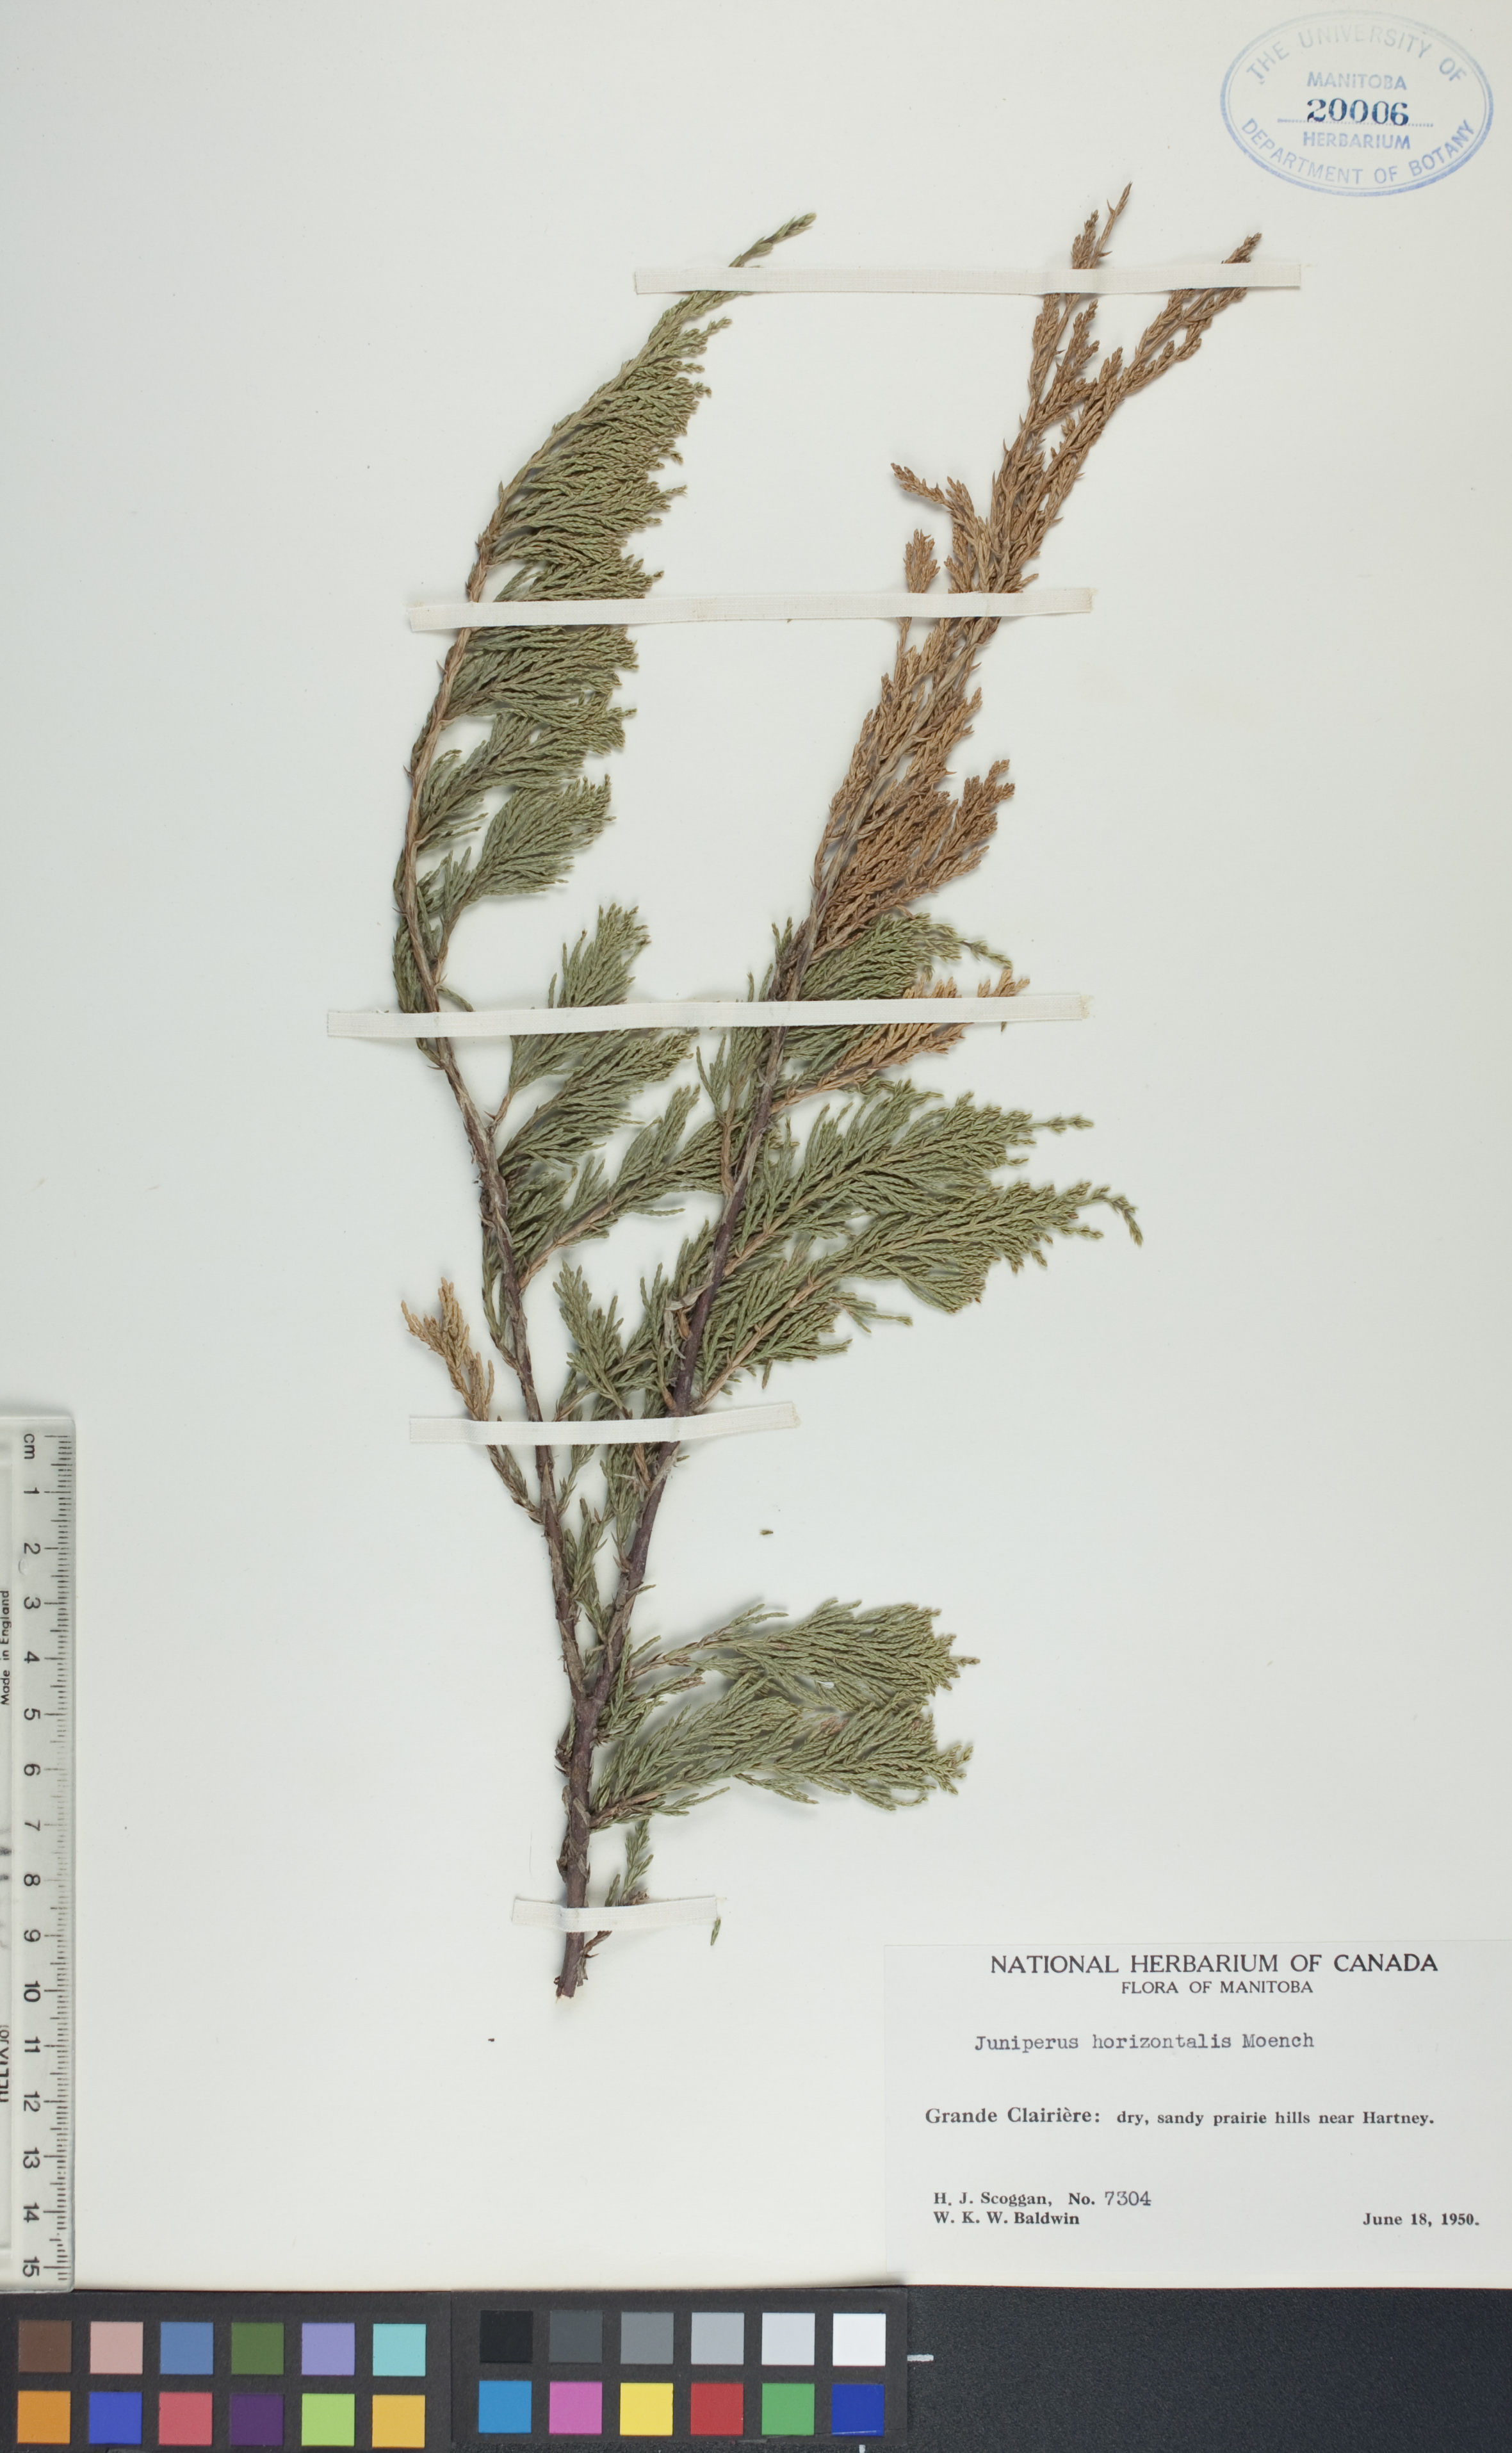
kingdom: Plantae
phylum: Tracheophyta
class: Pinopsida
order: Pinales
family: Cupressaceae
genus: Juniperus
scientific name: Juniperus horizontalis
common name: Creeping juniper
